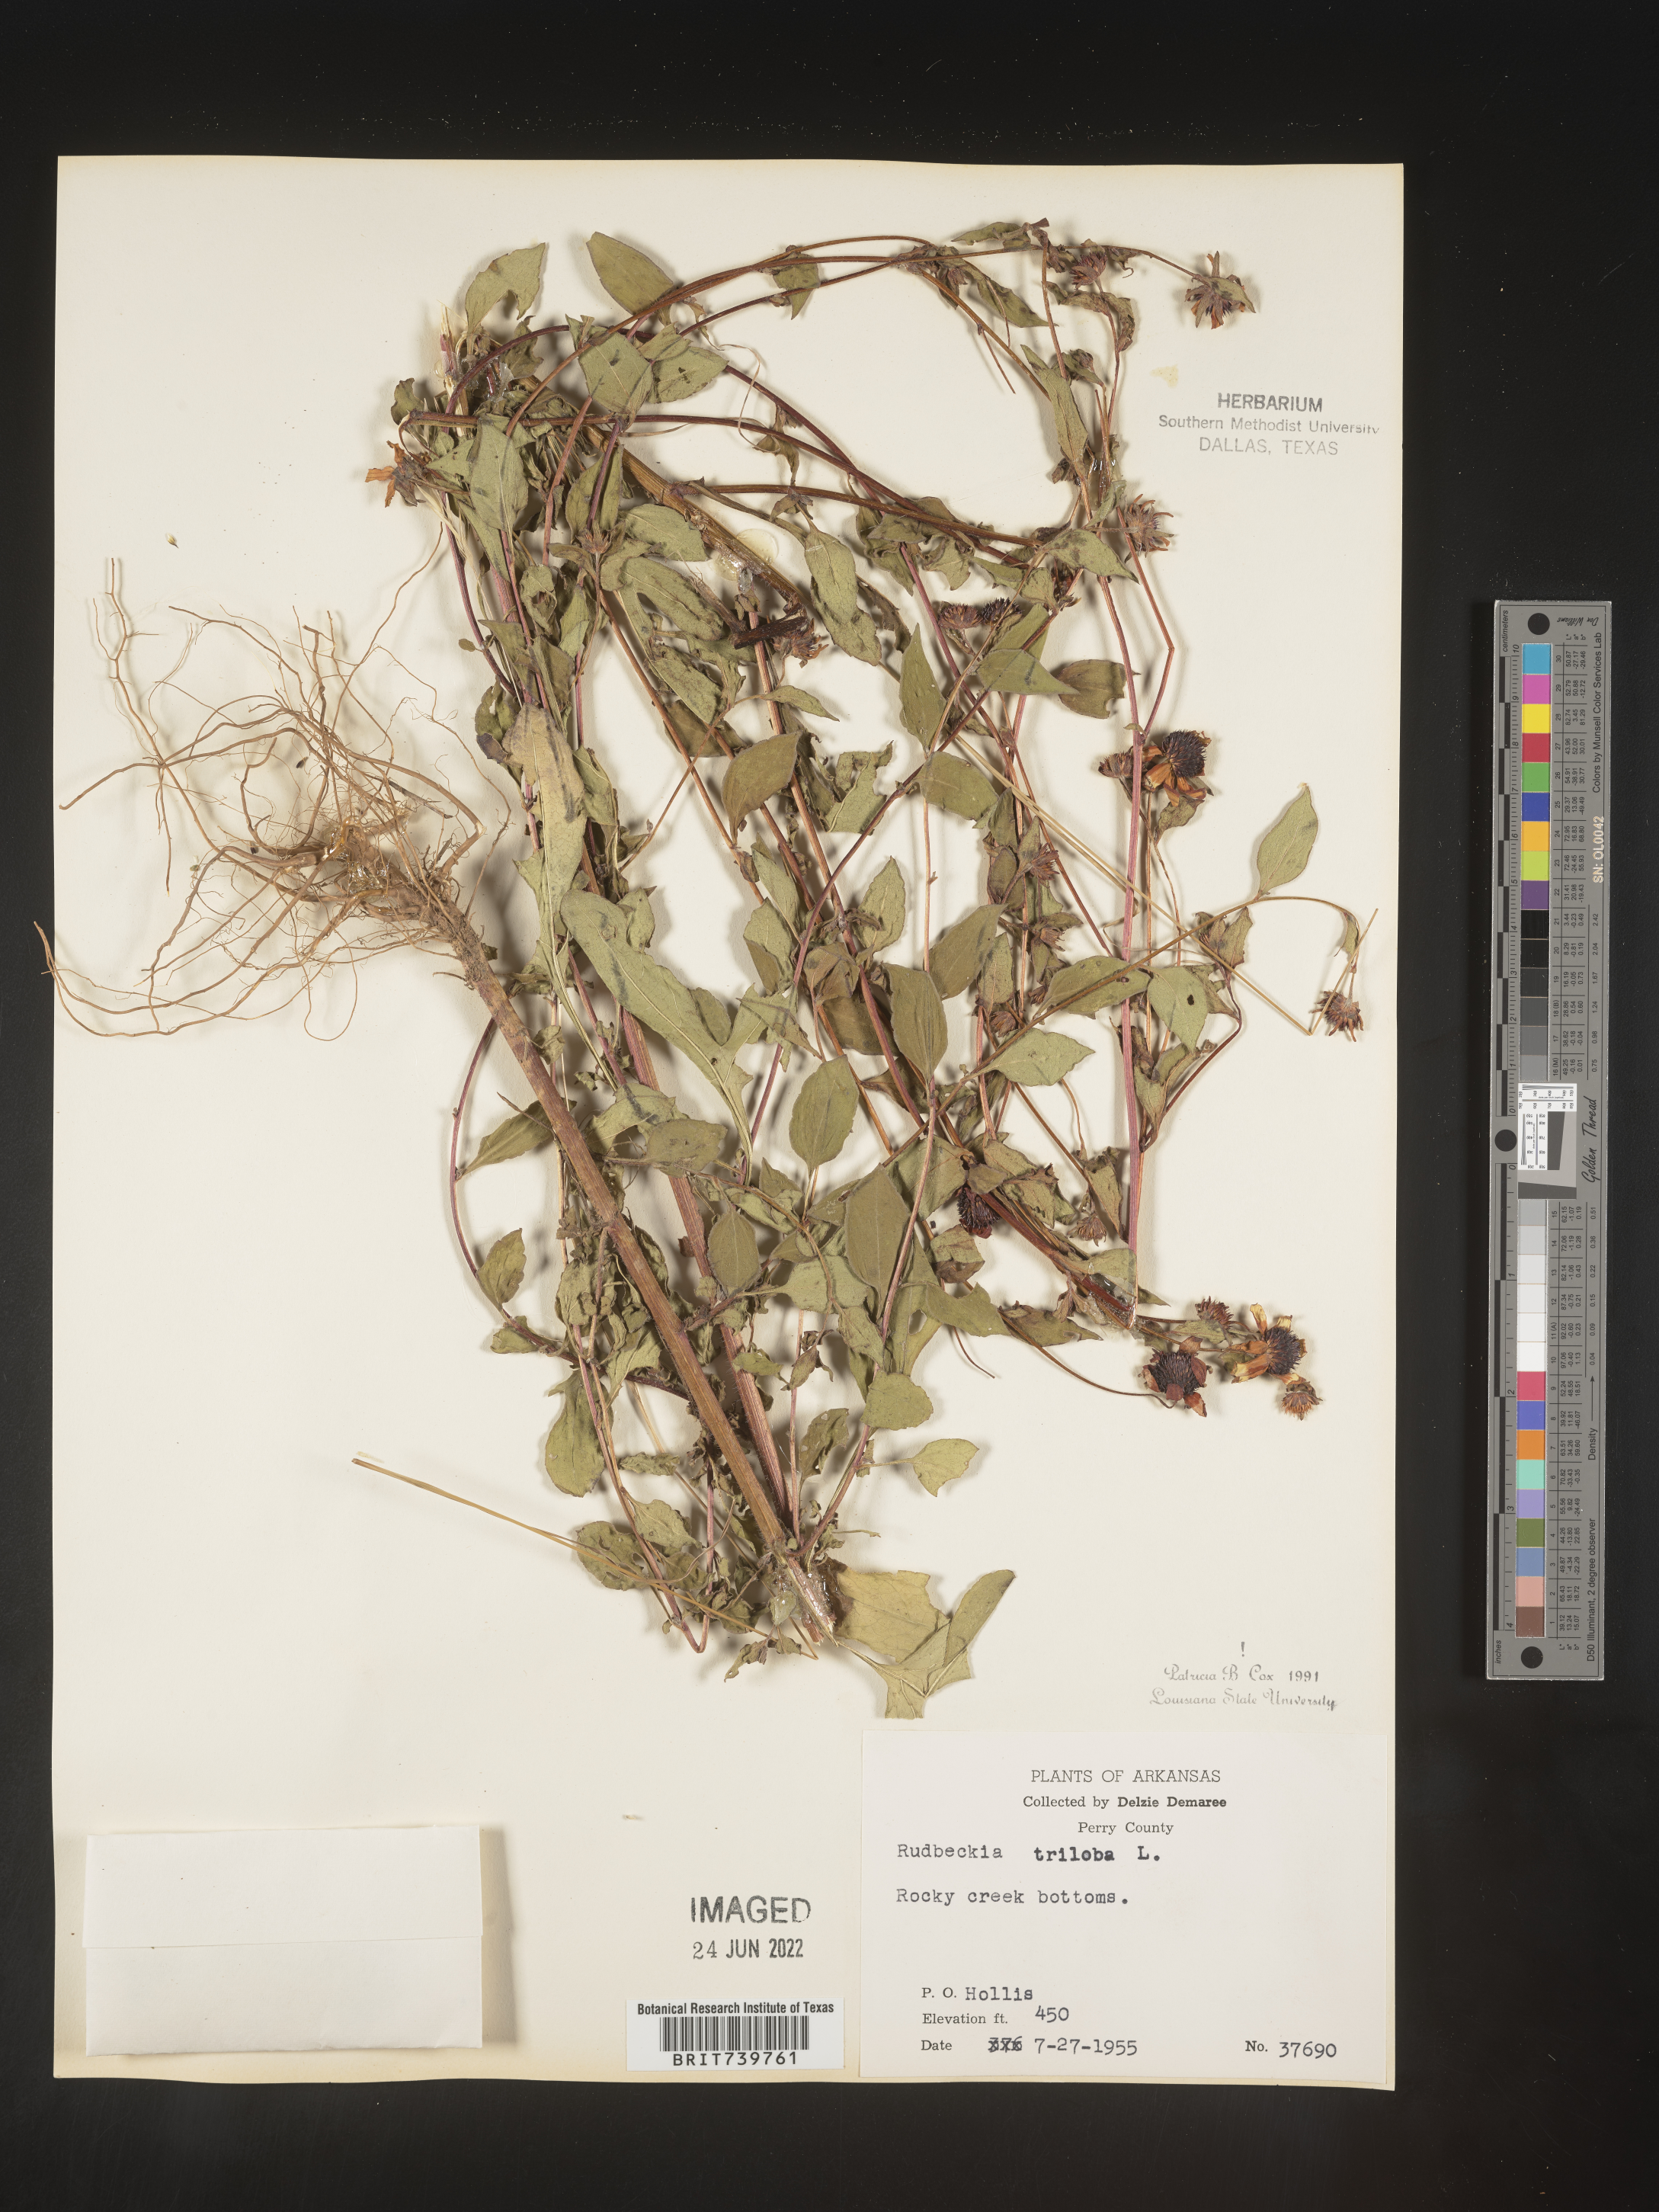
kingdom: Plantae
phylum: Tracheophyta
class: Magnoliopsida
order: Asterales
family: Asteraceae
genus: Rudbeckia
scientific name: Rudbeckia triloba
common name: Thin-leaved coneflower
